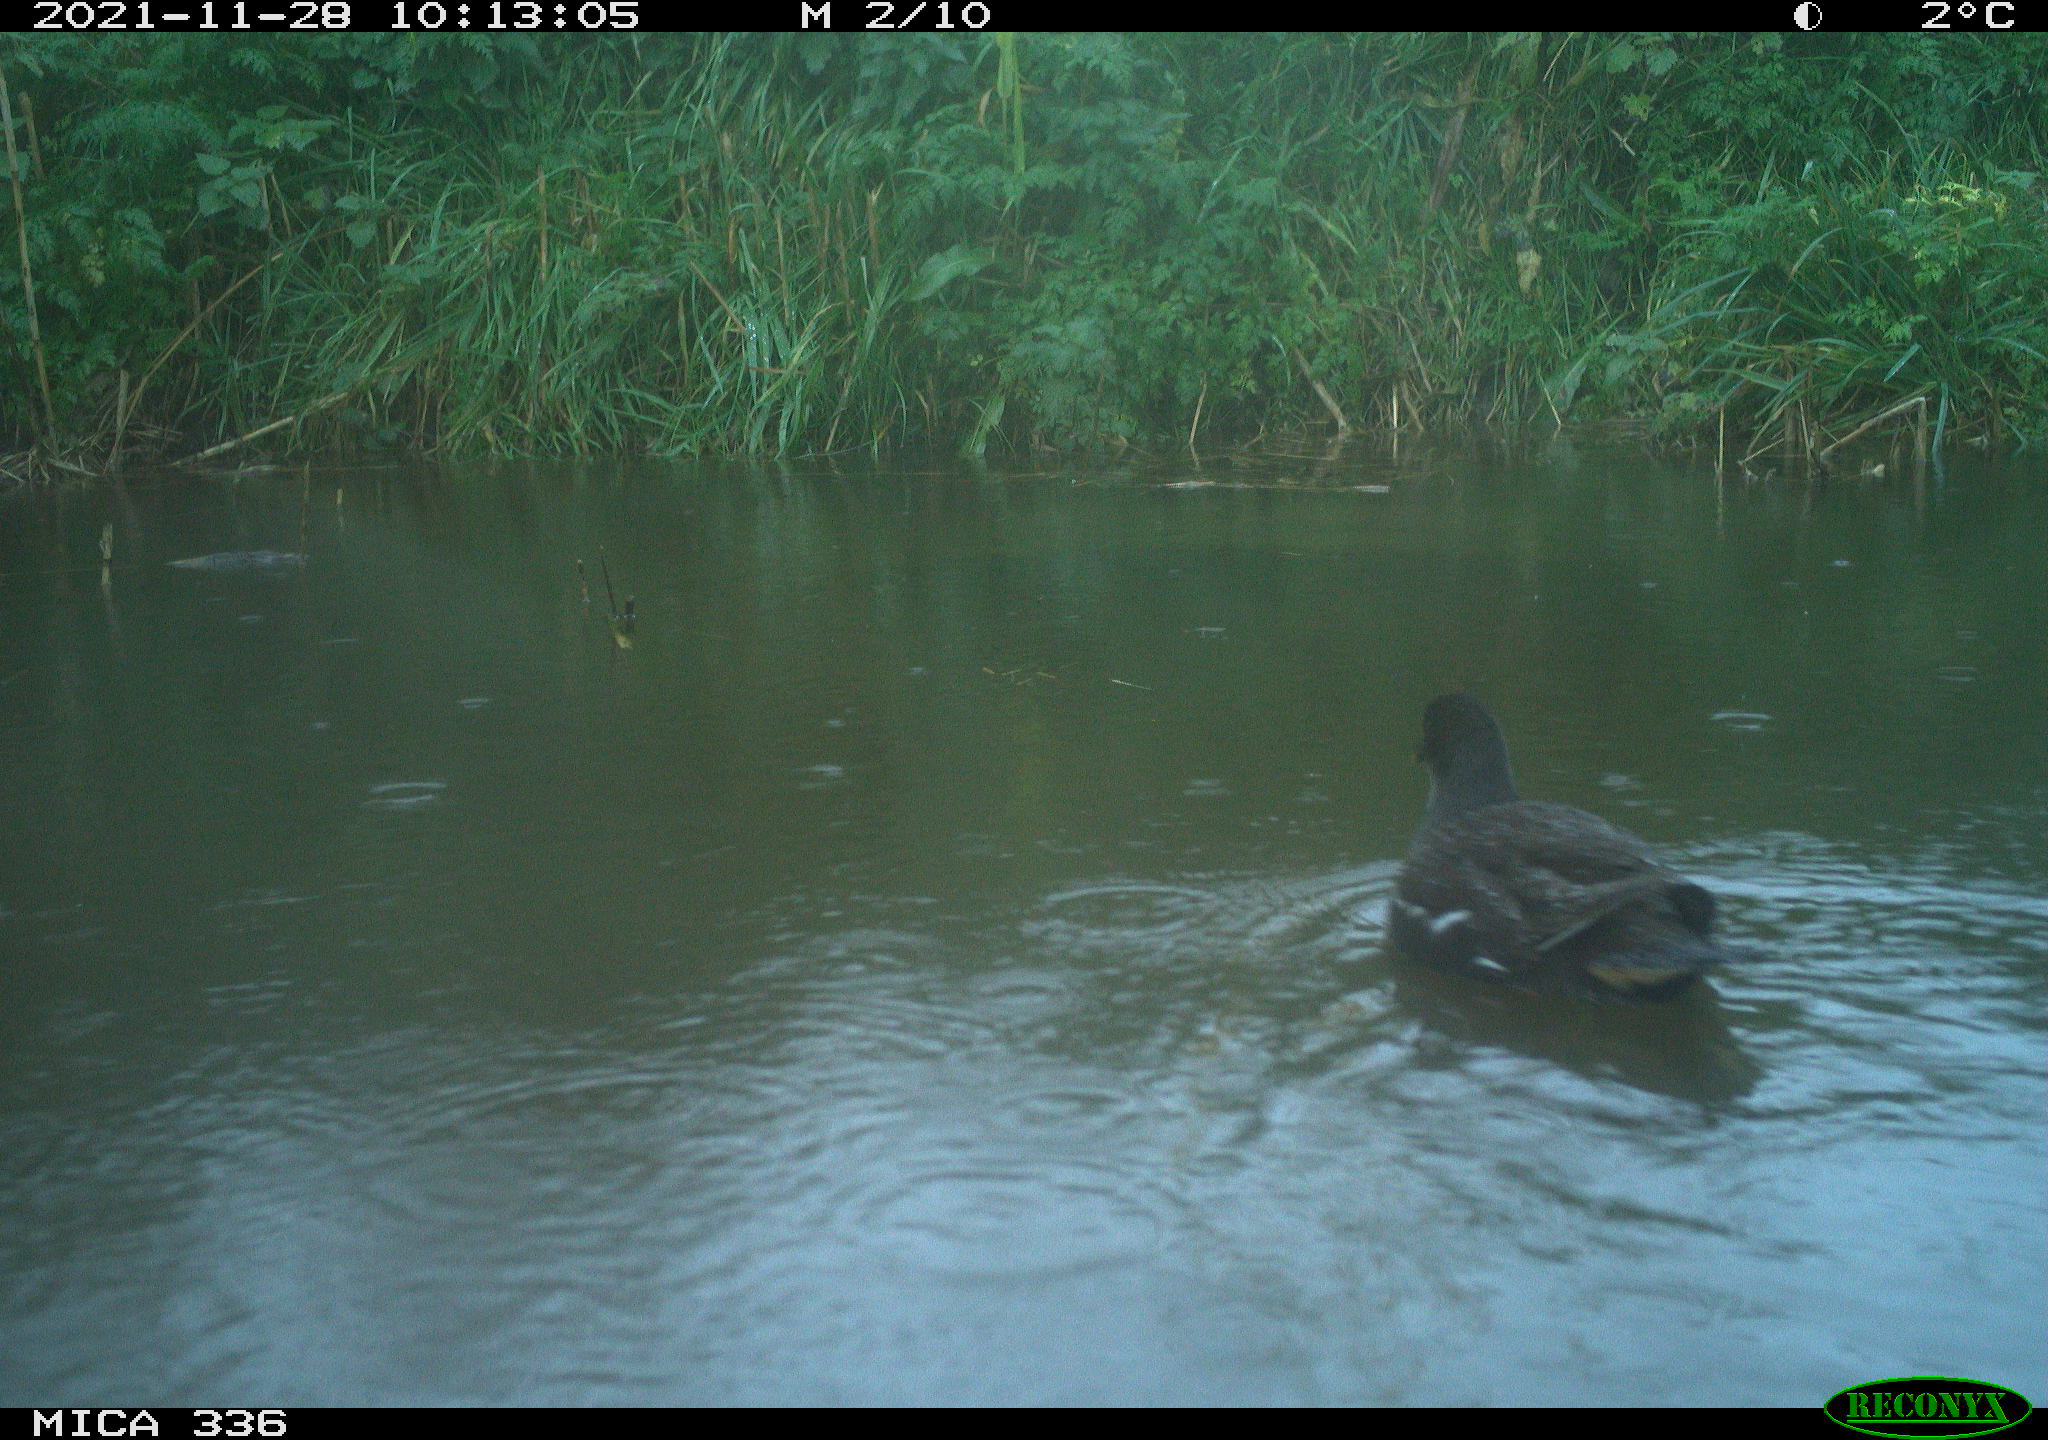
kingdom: Animalia
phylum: Chordata
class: Aves
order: Gruiformes
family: Rallidae
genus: Gallinula
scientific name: Gallinula chloropus
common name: Common moorhen
